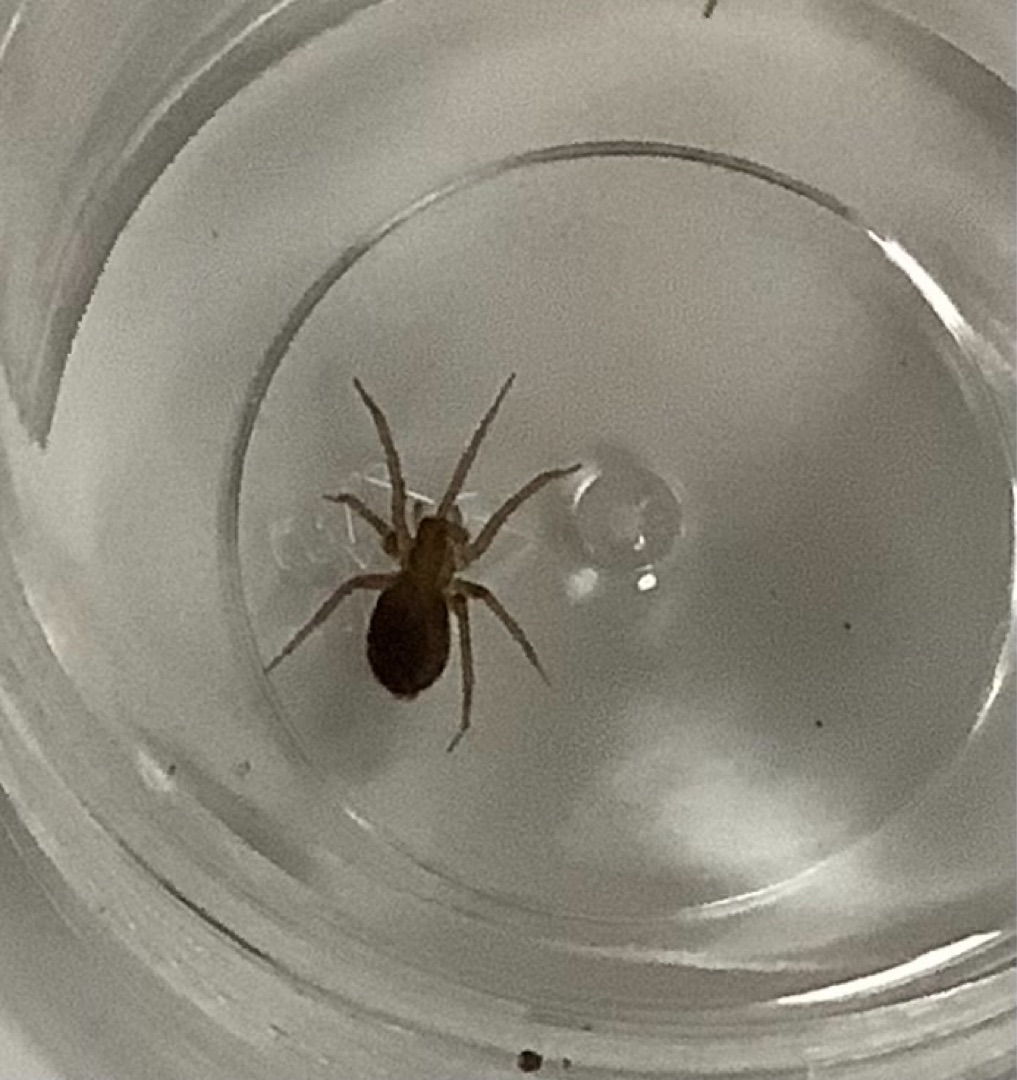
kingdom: Animalia
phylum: Arthropoda
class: Arachnida
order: Araneae
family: Agelenidae
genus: Tegenaria
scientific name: Tegenaria domestica
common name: Lille husedderkop
